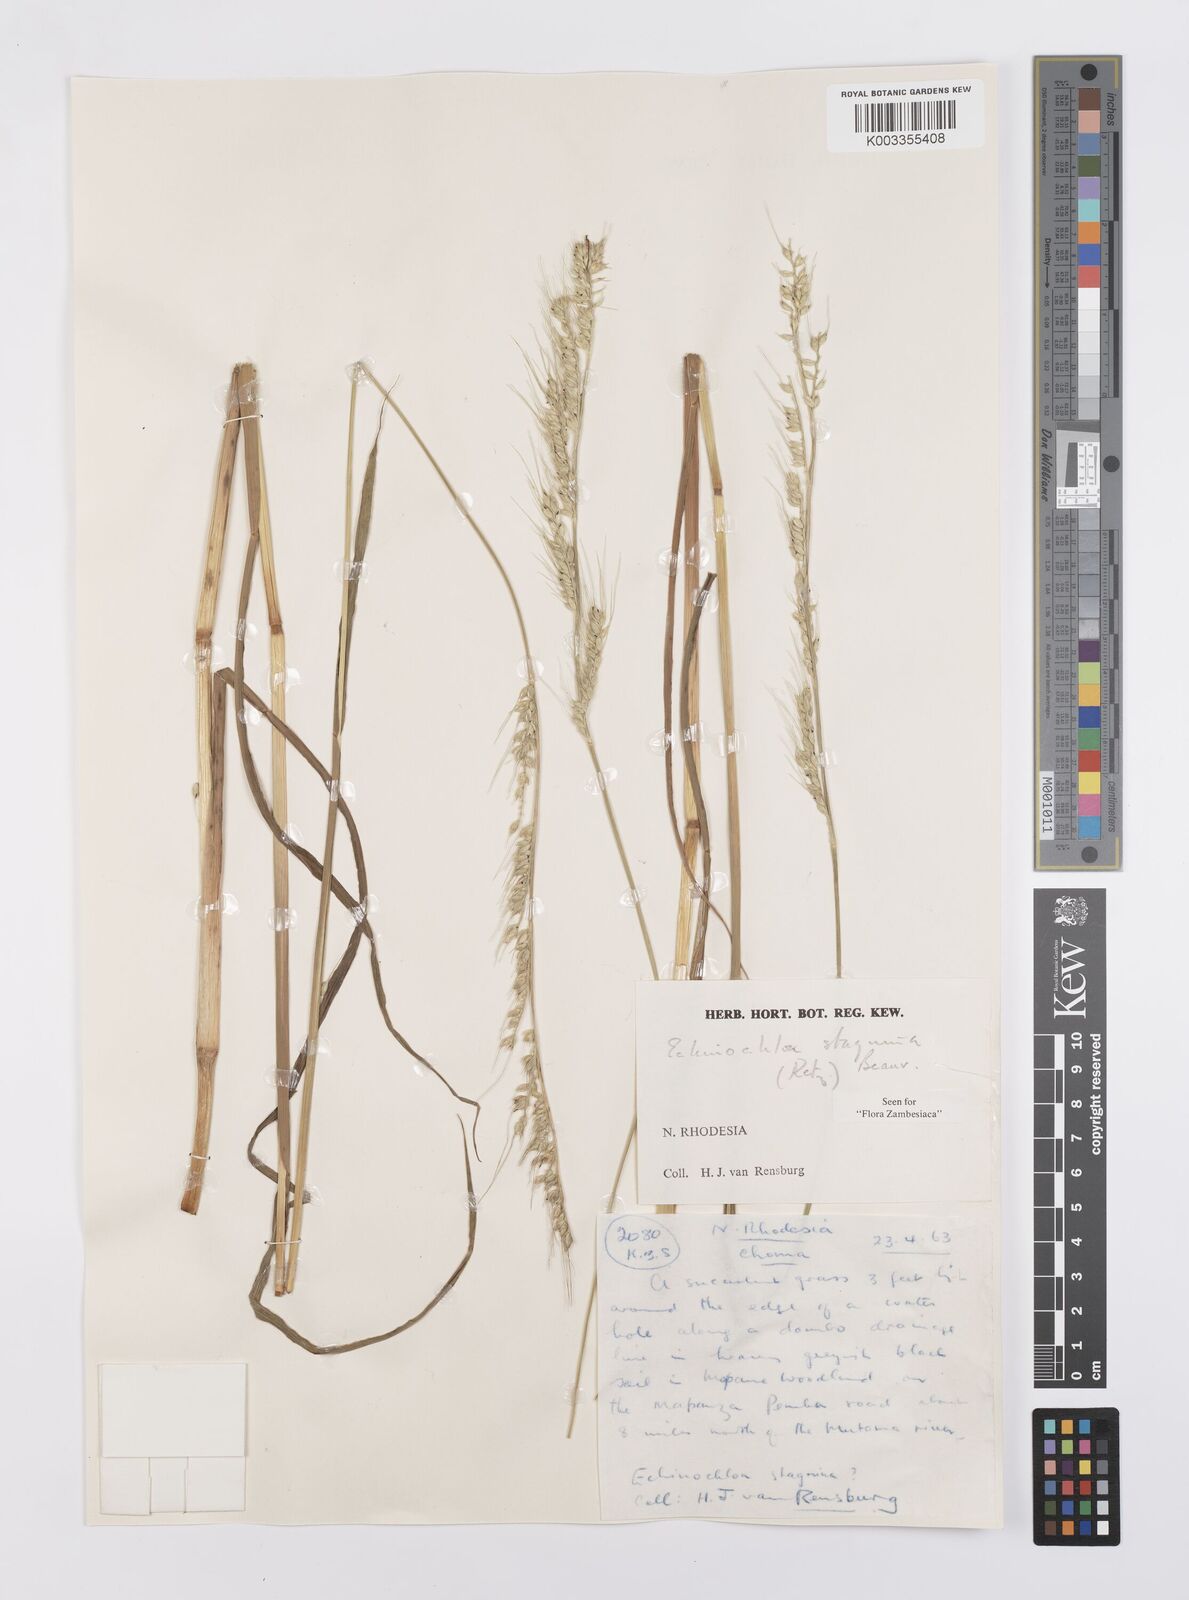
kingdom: Plantae
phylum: Tracheophyta
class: Liliopsida
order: Poales
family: Poaceae
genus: Echinochloa
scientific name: Echinochloa stagnina
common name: Burgu grass
